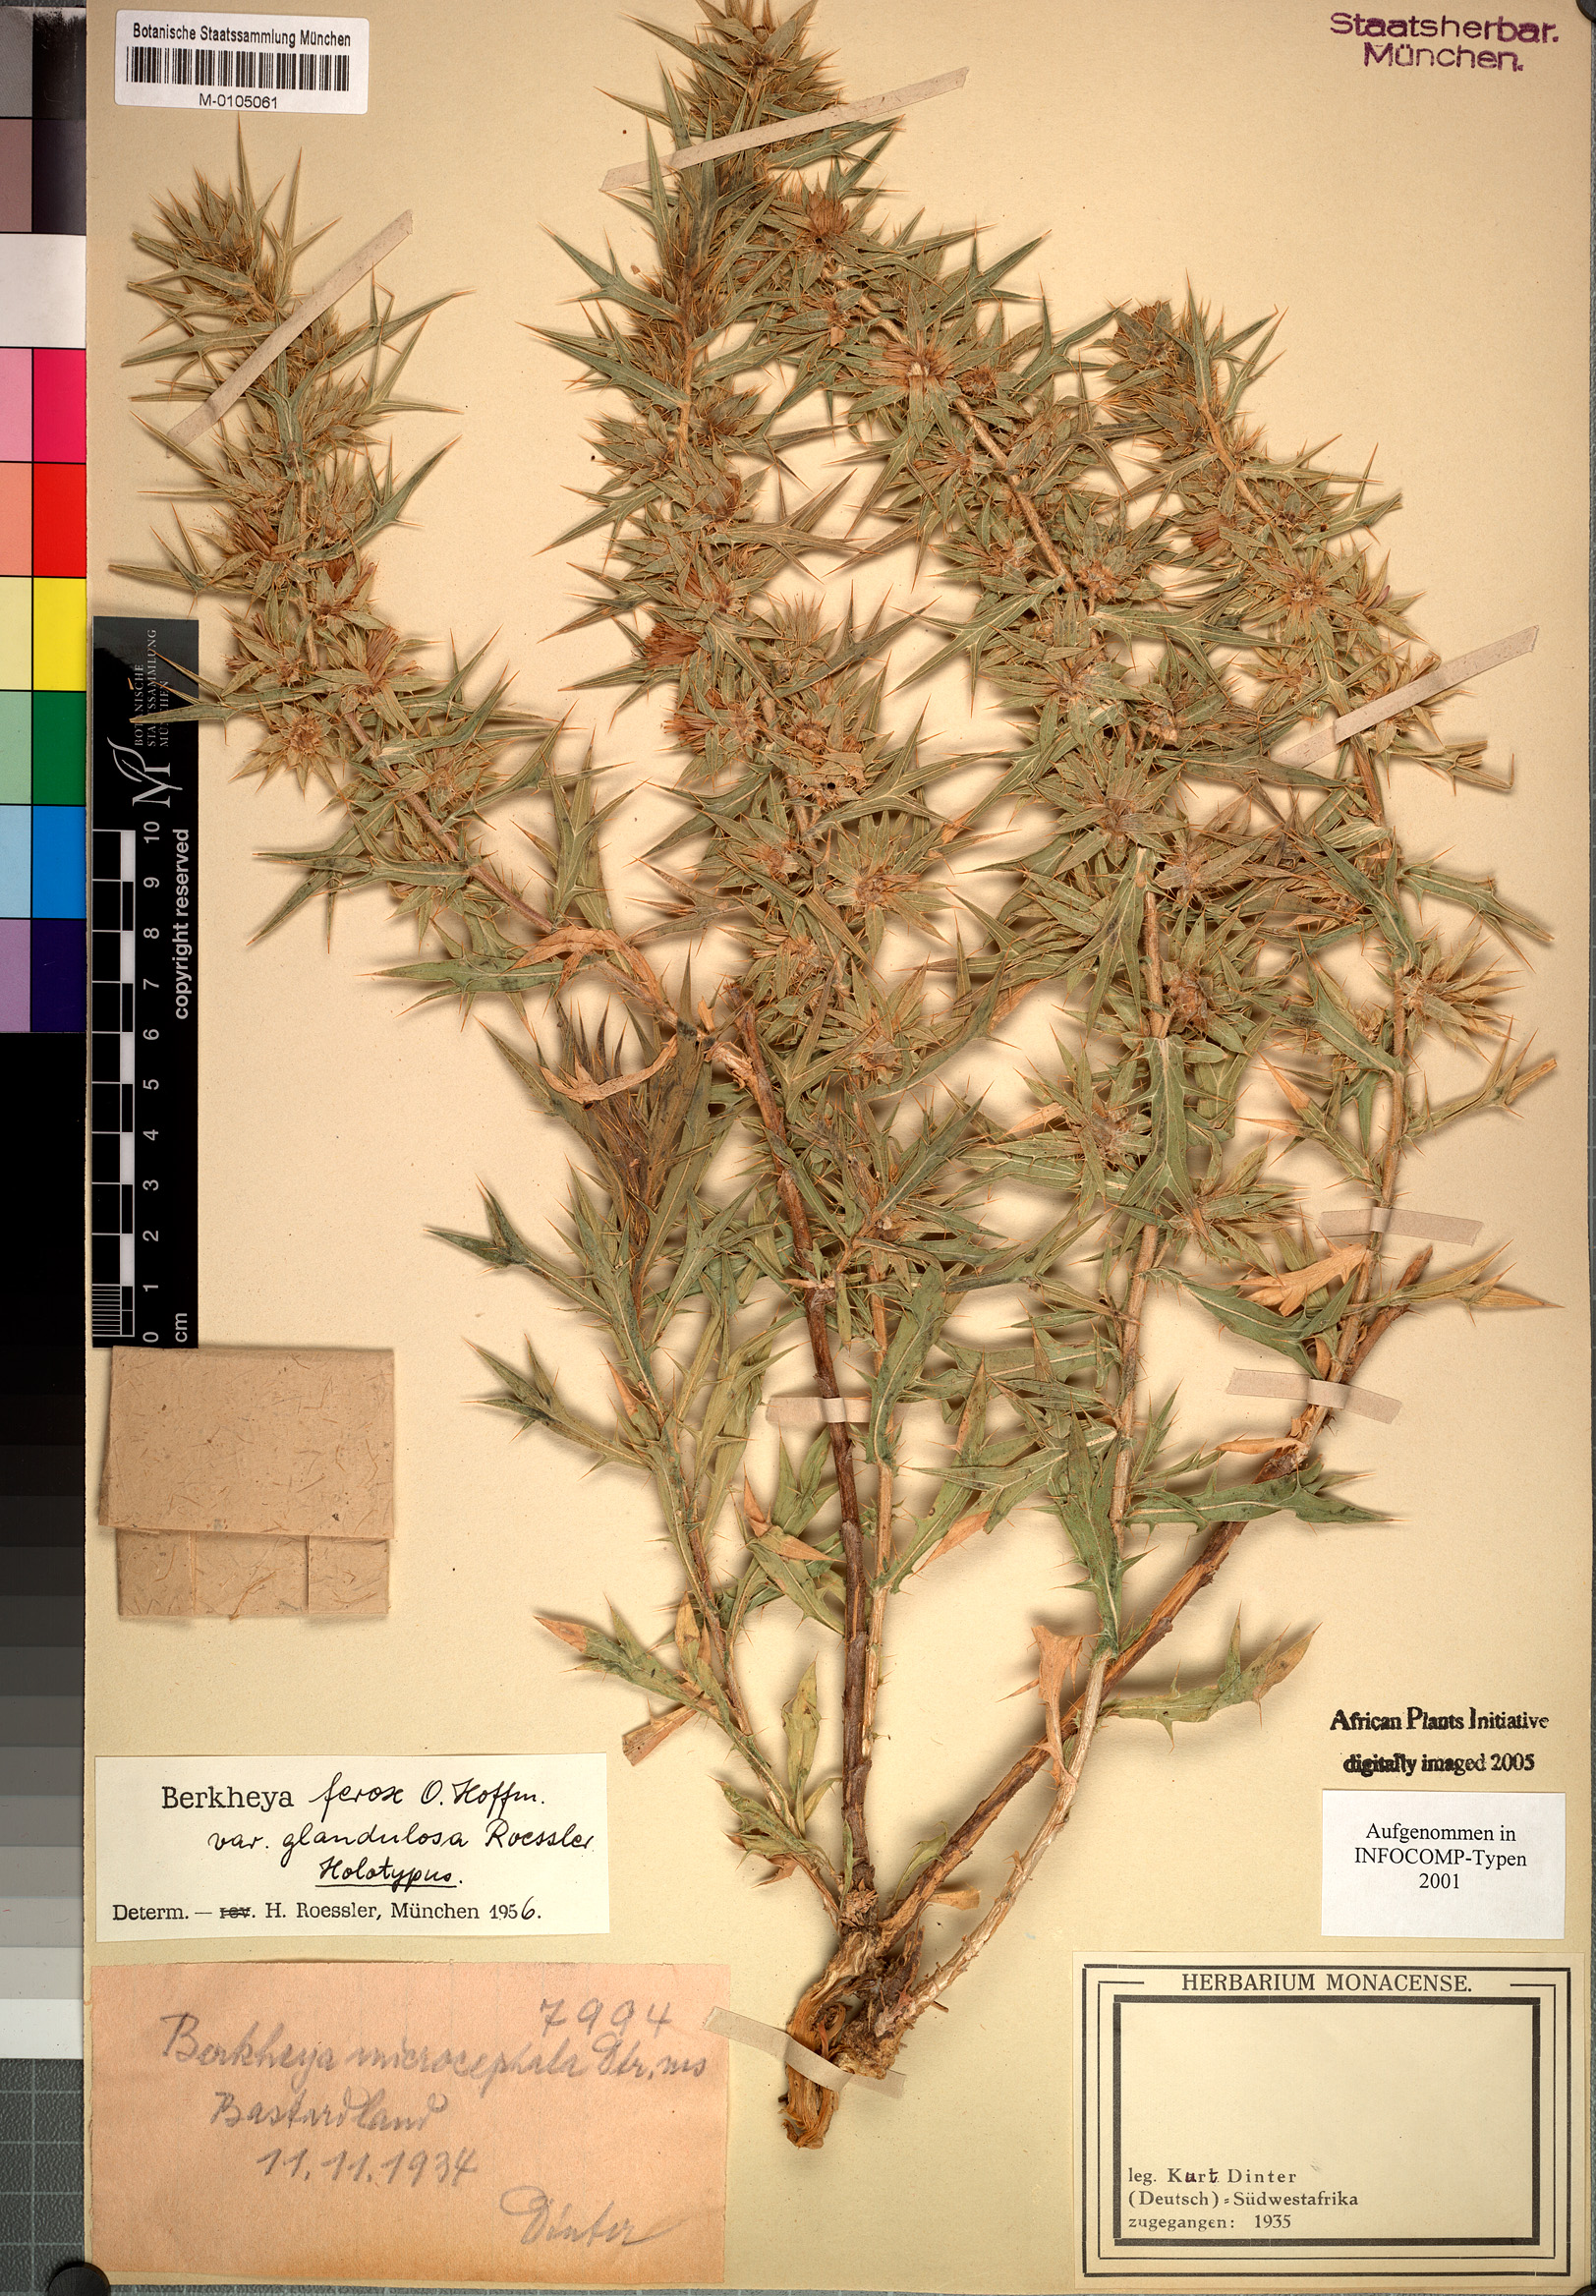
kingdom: Plantae
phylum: Tracheophyta
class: Magnoliopsida
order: Asterales
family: Asteraceae
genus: Berkheya
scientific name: Berkheya ferox
